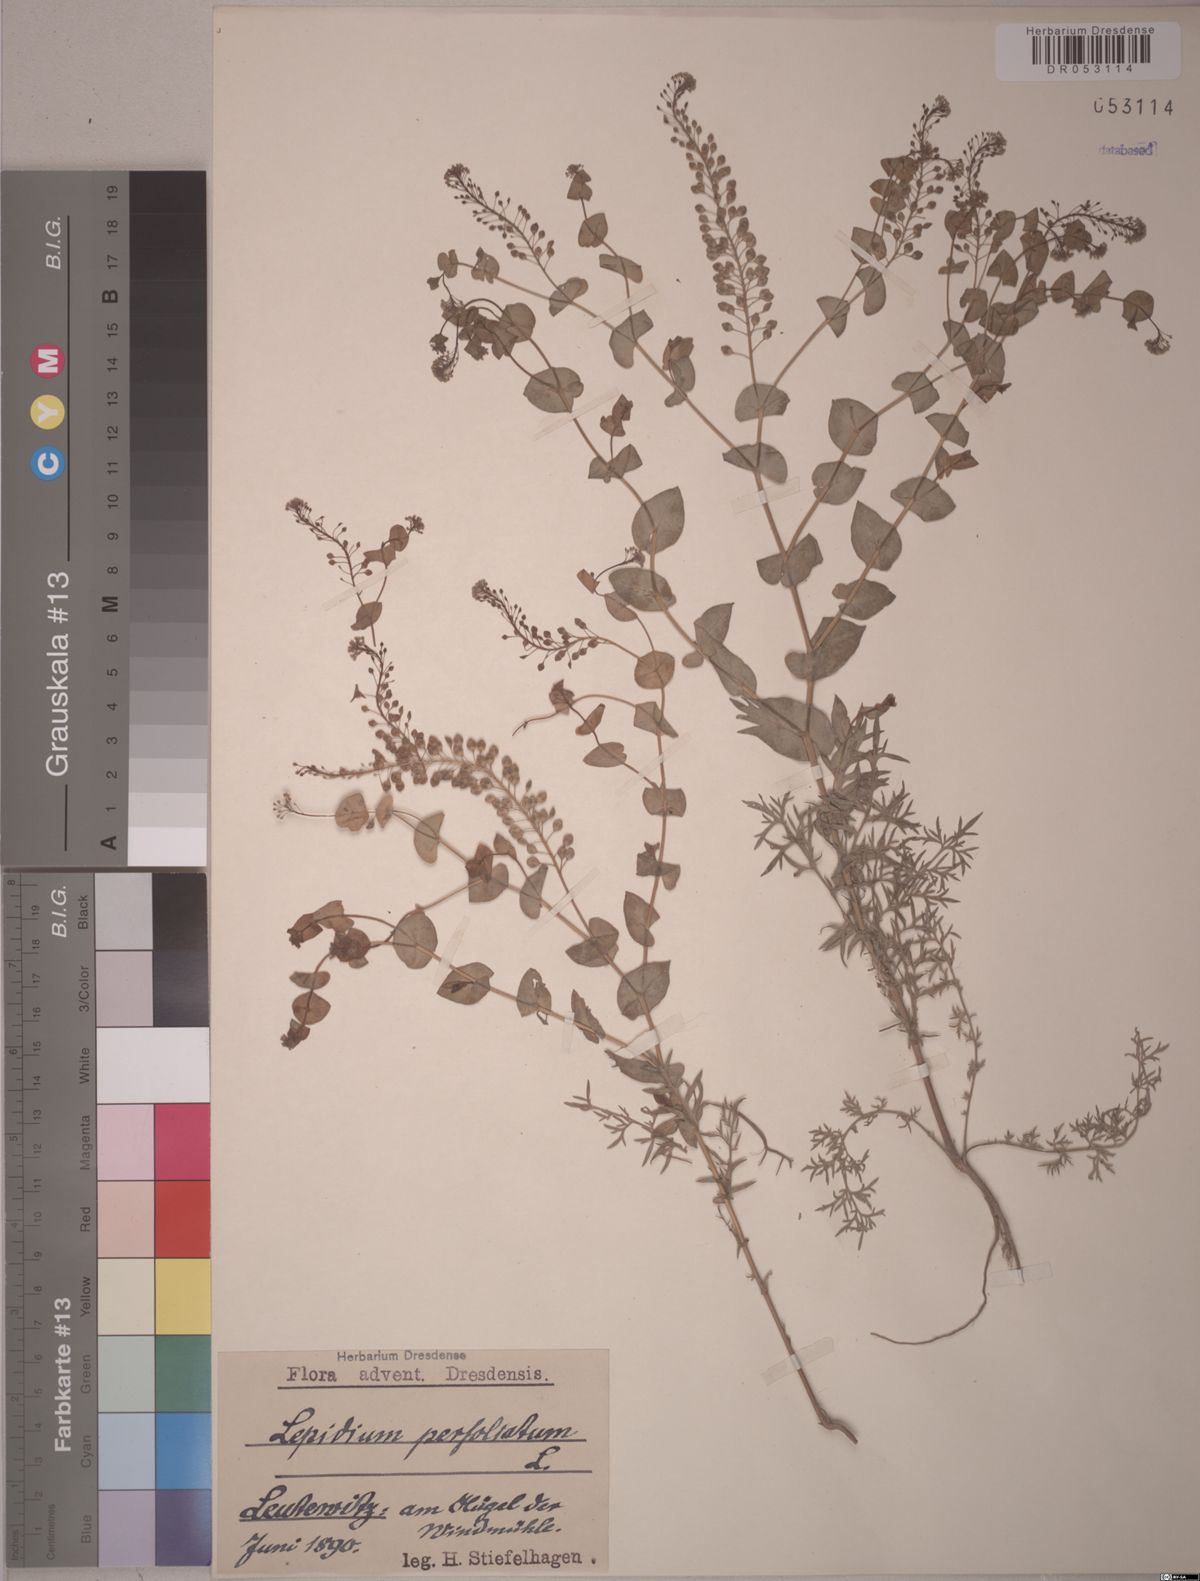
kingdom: Plantae
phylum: Tracheophyta
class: Magnoliopsida
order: Brassicales
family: Brassicaceae
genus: Lepidium
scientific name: Lepidium perfoliatum
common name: Perfoliate pepperwort
